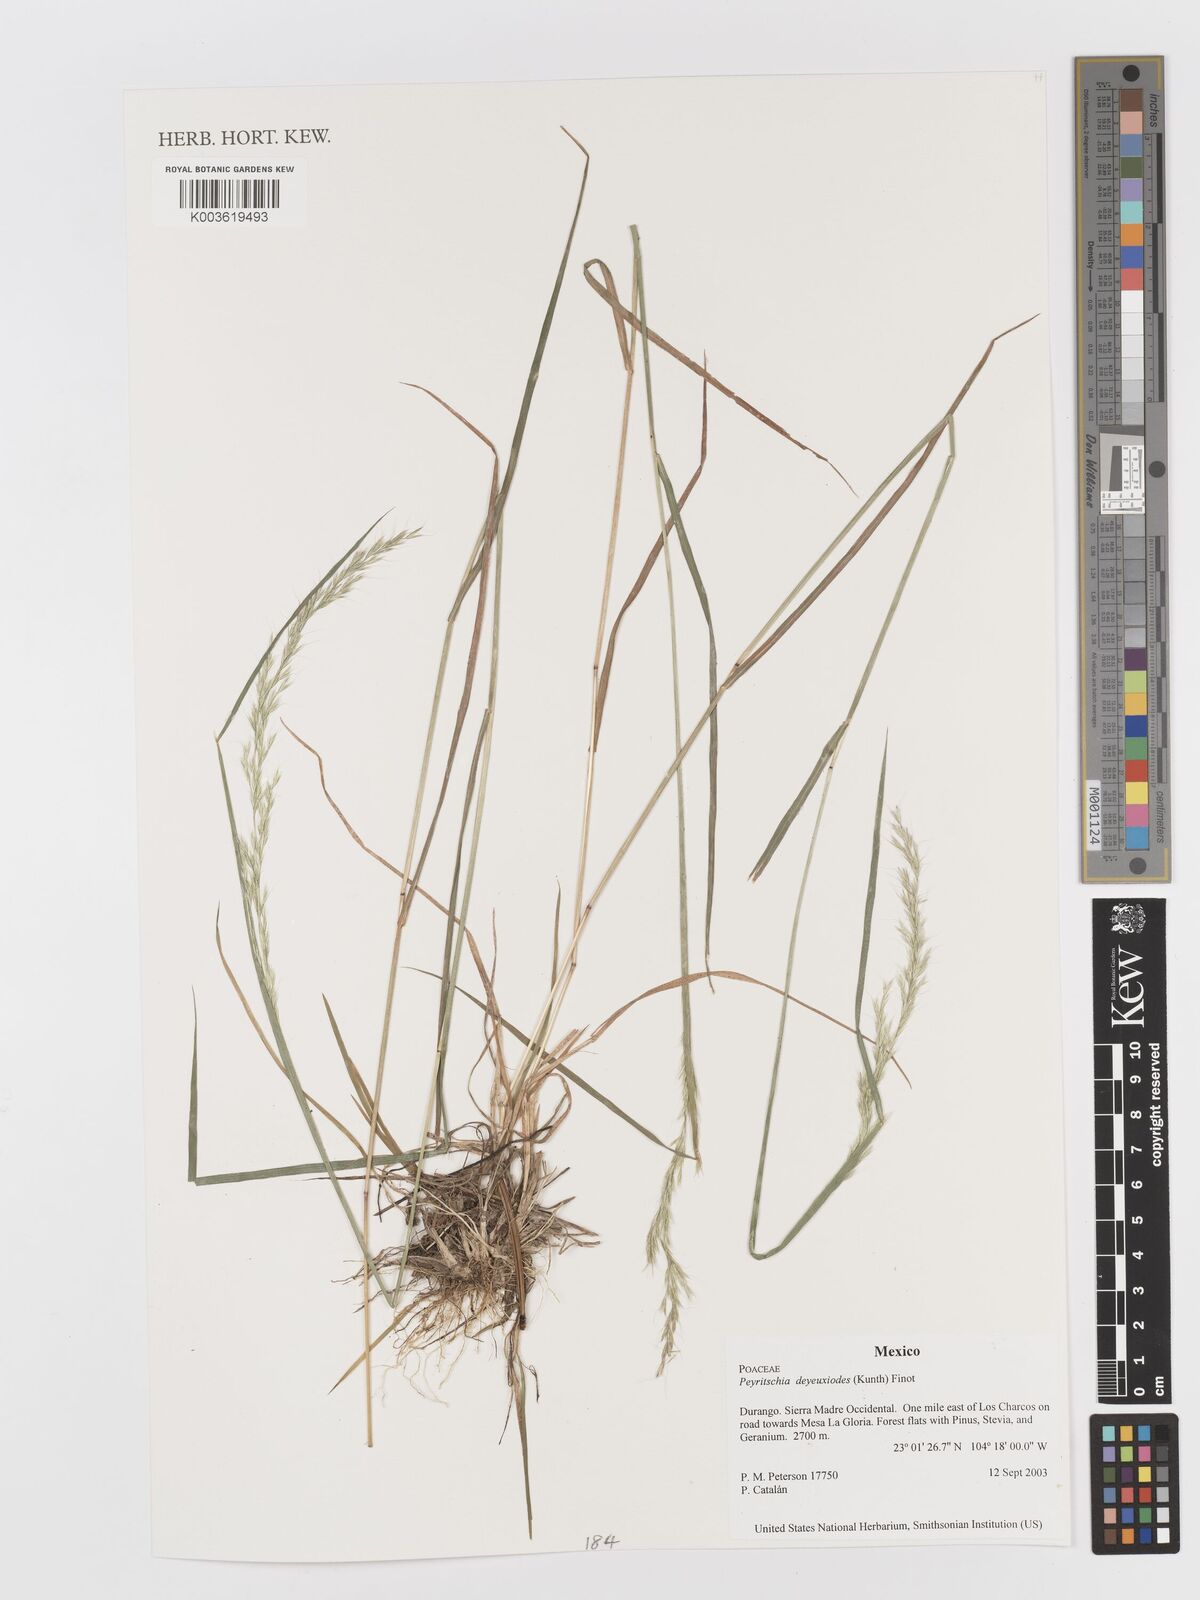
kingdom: Plantae
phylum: Tracheophyta
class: Liliopsida
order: Poales
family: Poaceae
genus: Peyritschia
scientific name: Peyritschia deyeuxioides
